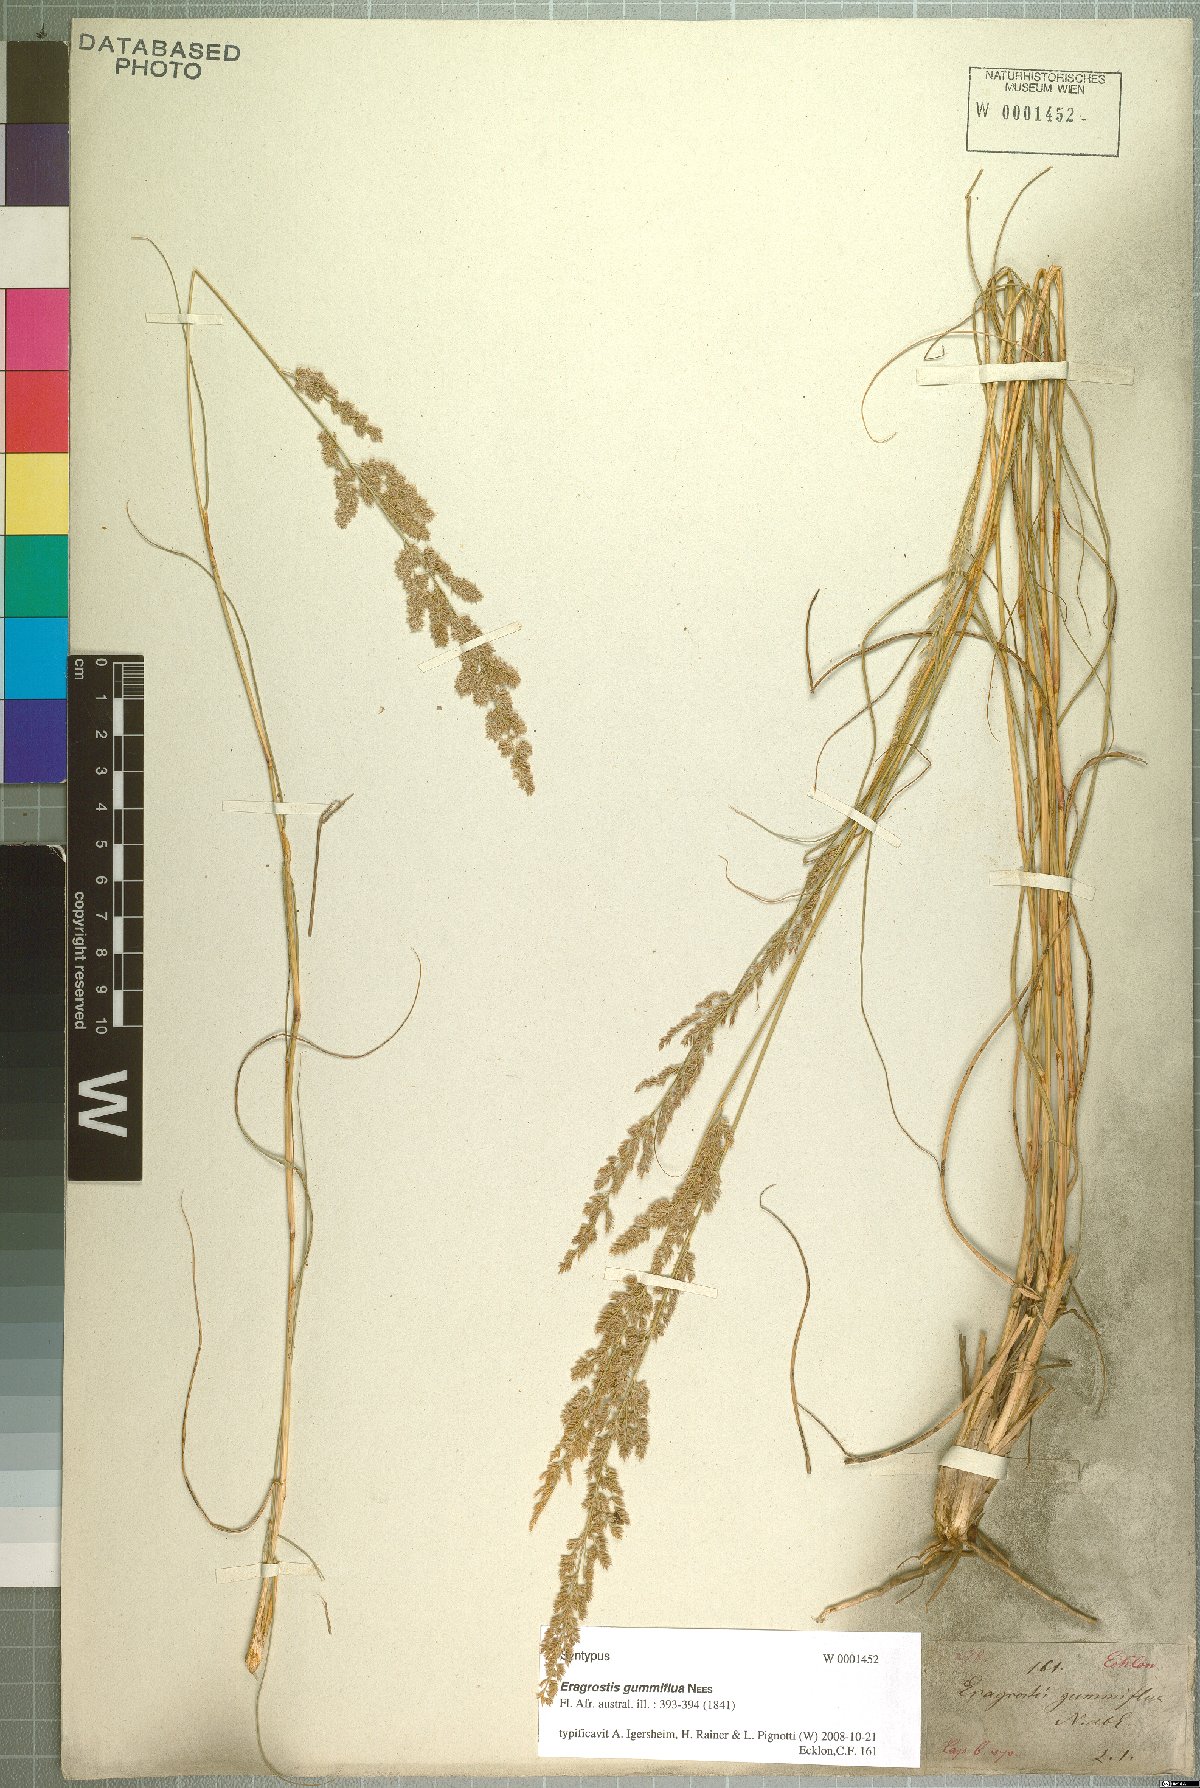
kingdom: Plantae
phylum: Tracheophyta
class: Liliopsida
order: Poales
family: Poaceae
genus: Eragrostis
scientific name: Eragrostis gummiflua
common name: Gum grass
